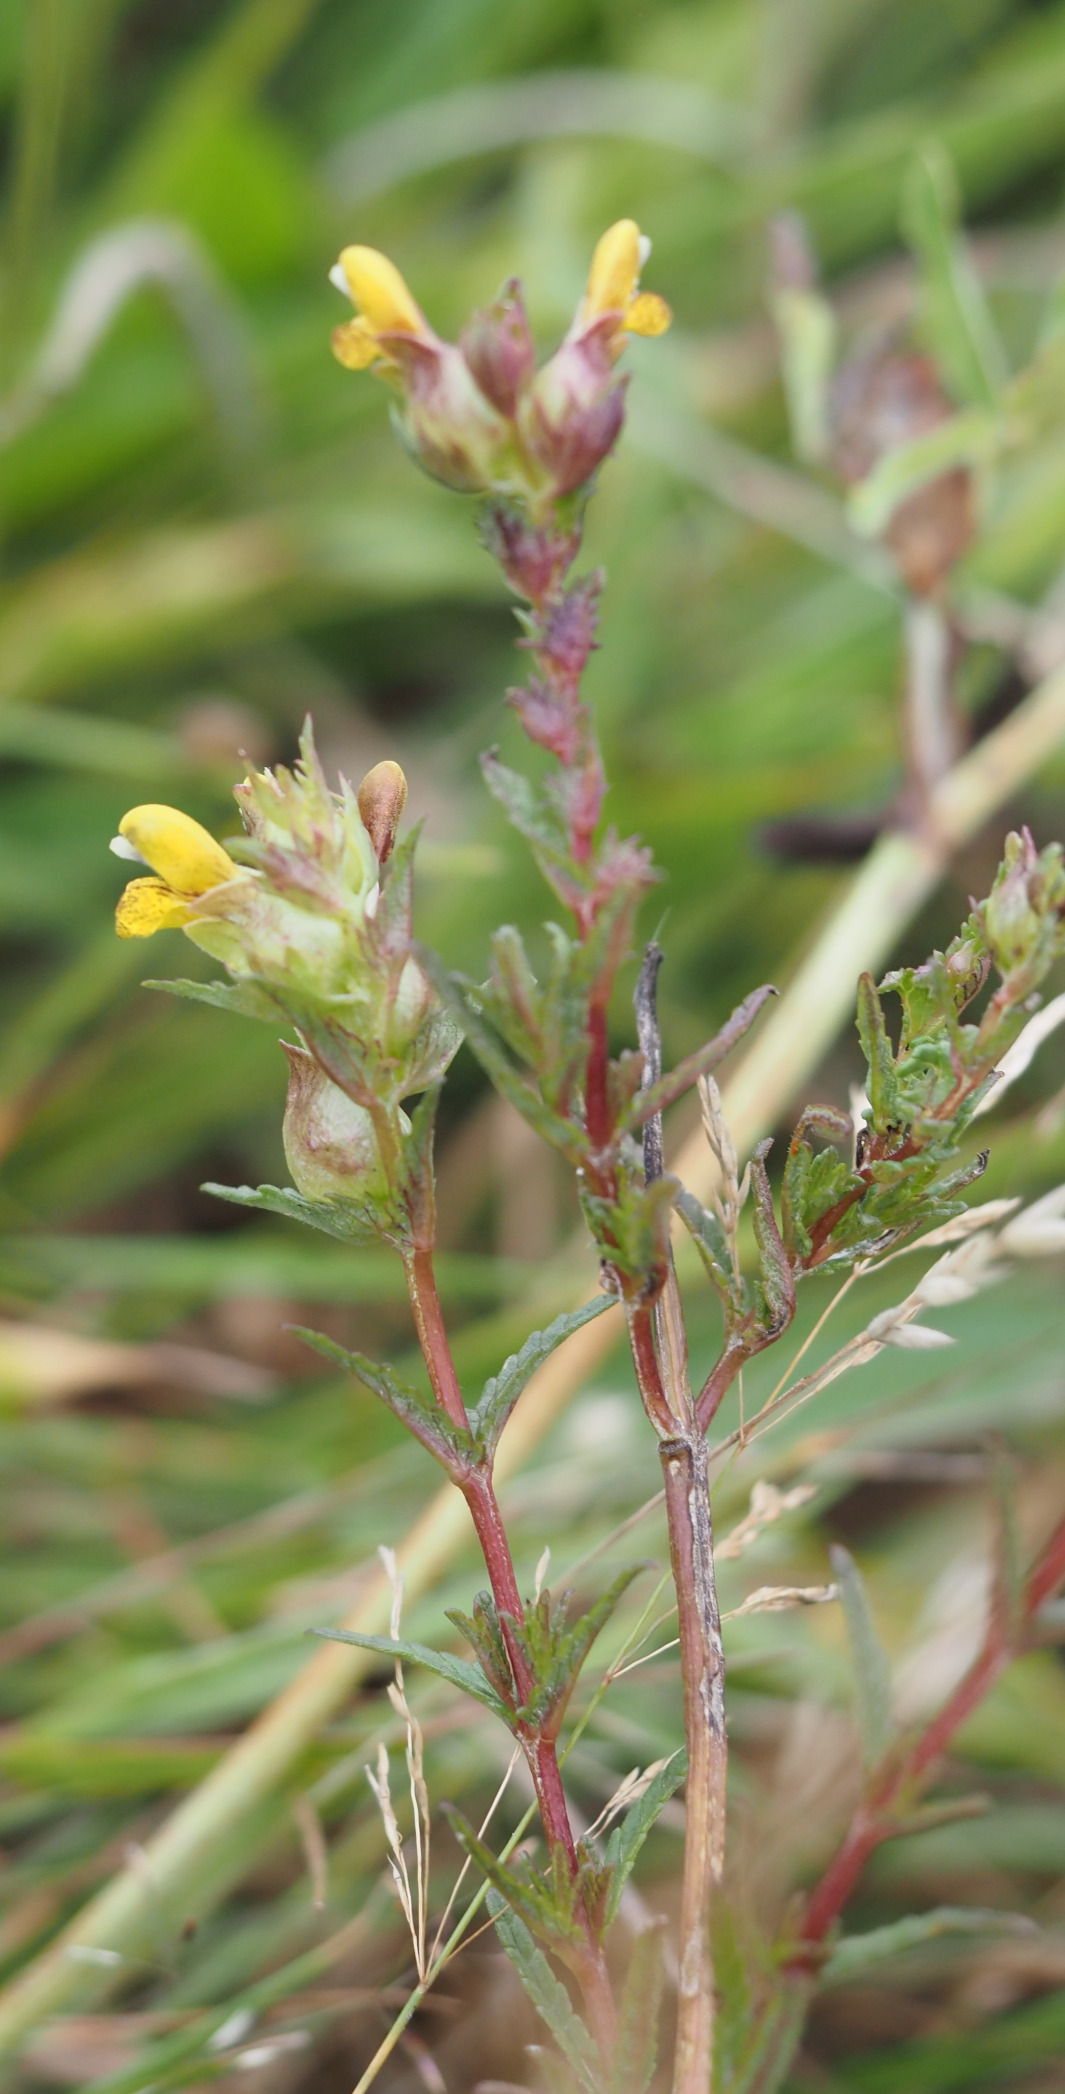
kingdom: Plantae
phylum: Tracheophyta
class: Magnoliopsida
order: Lamiales
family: Orobanchaceae
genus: Rhinanthus
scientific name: Rhinanthus minor
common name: Liden skjaller
